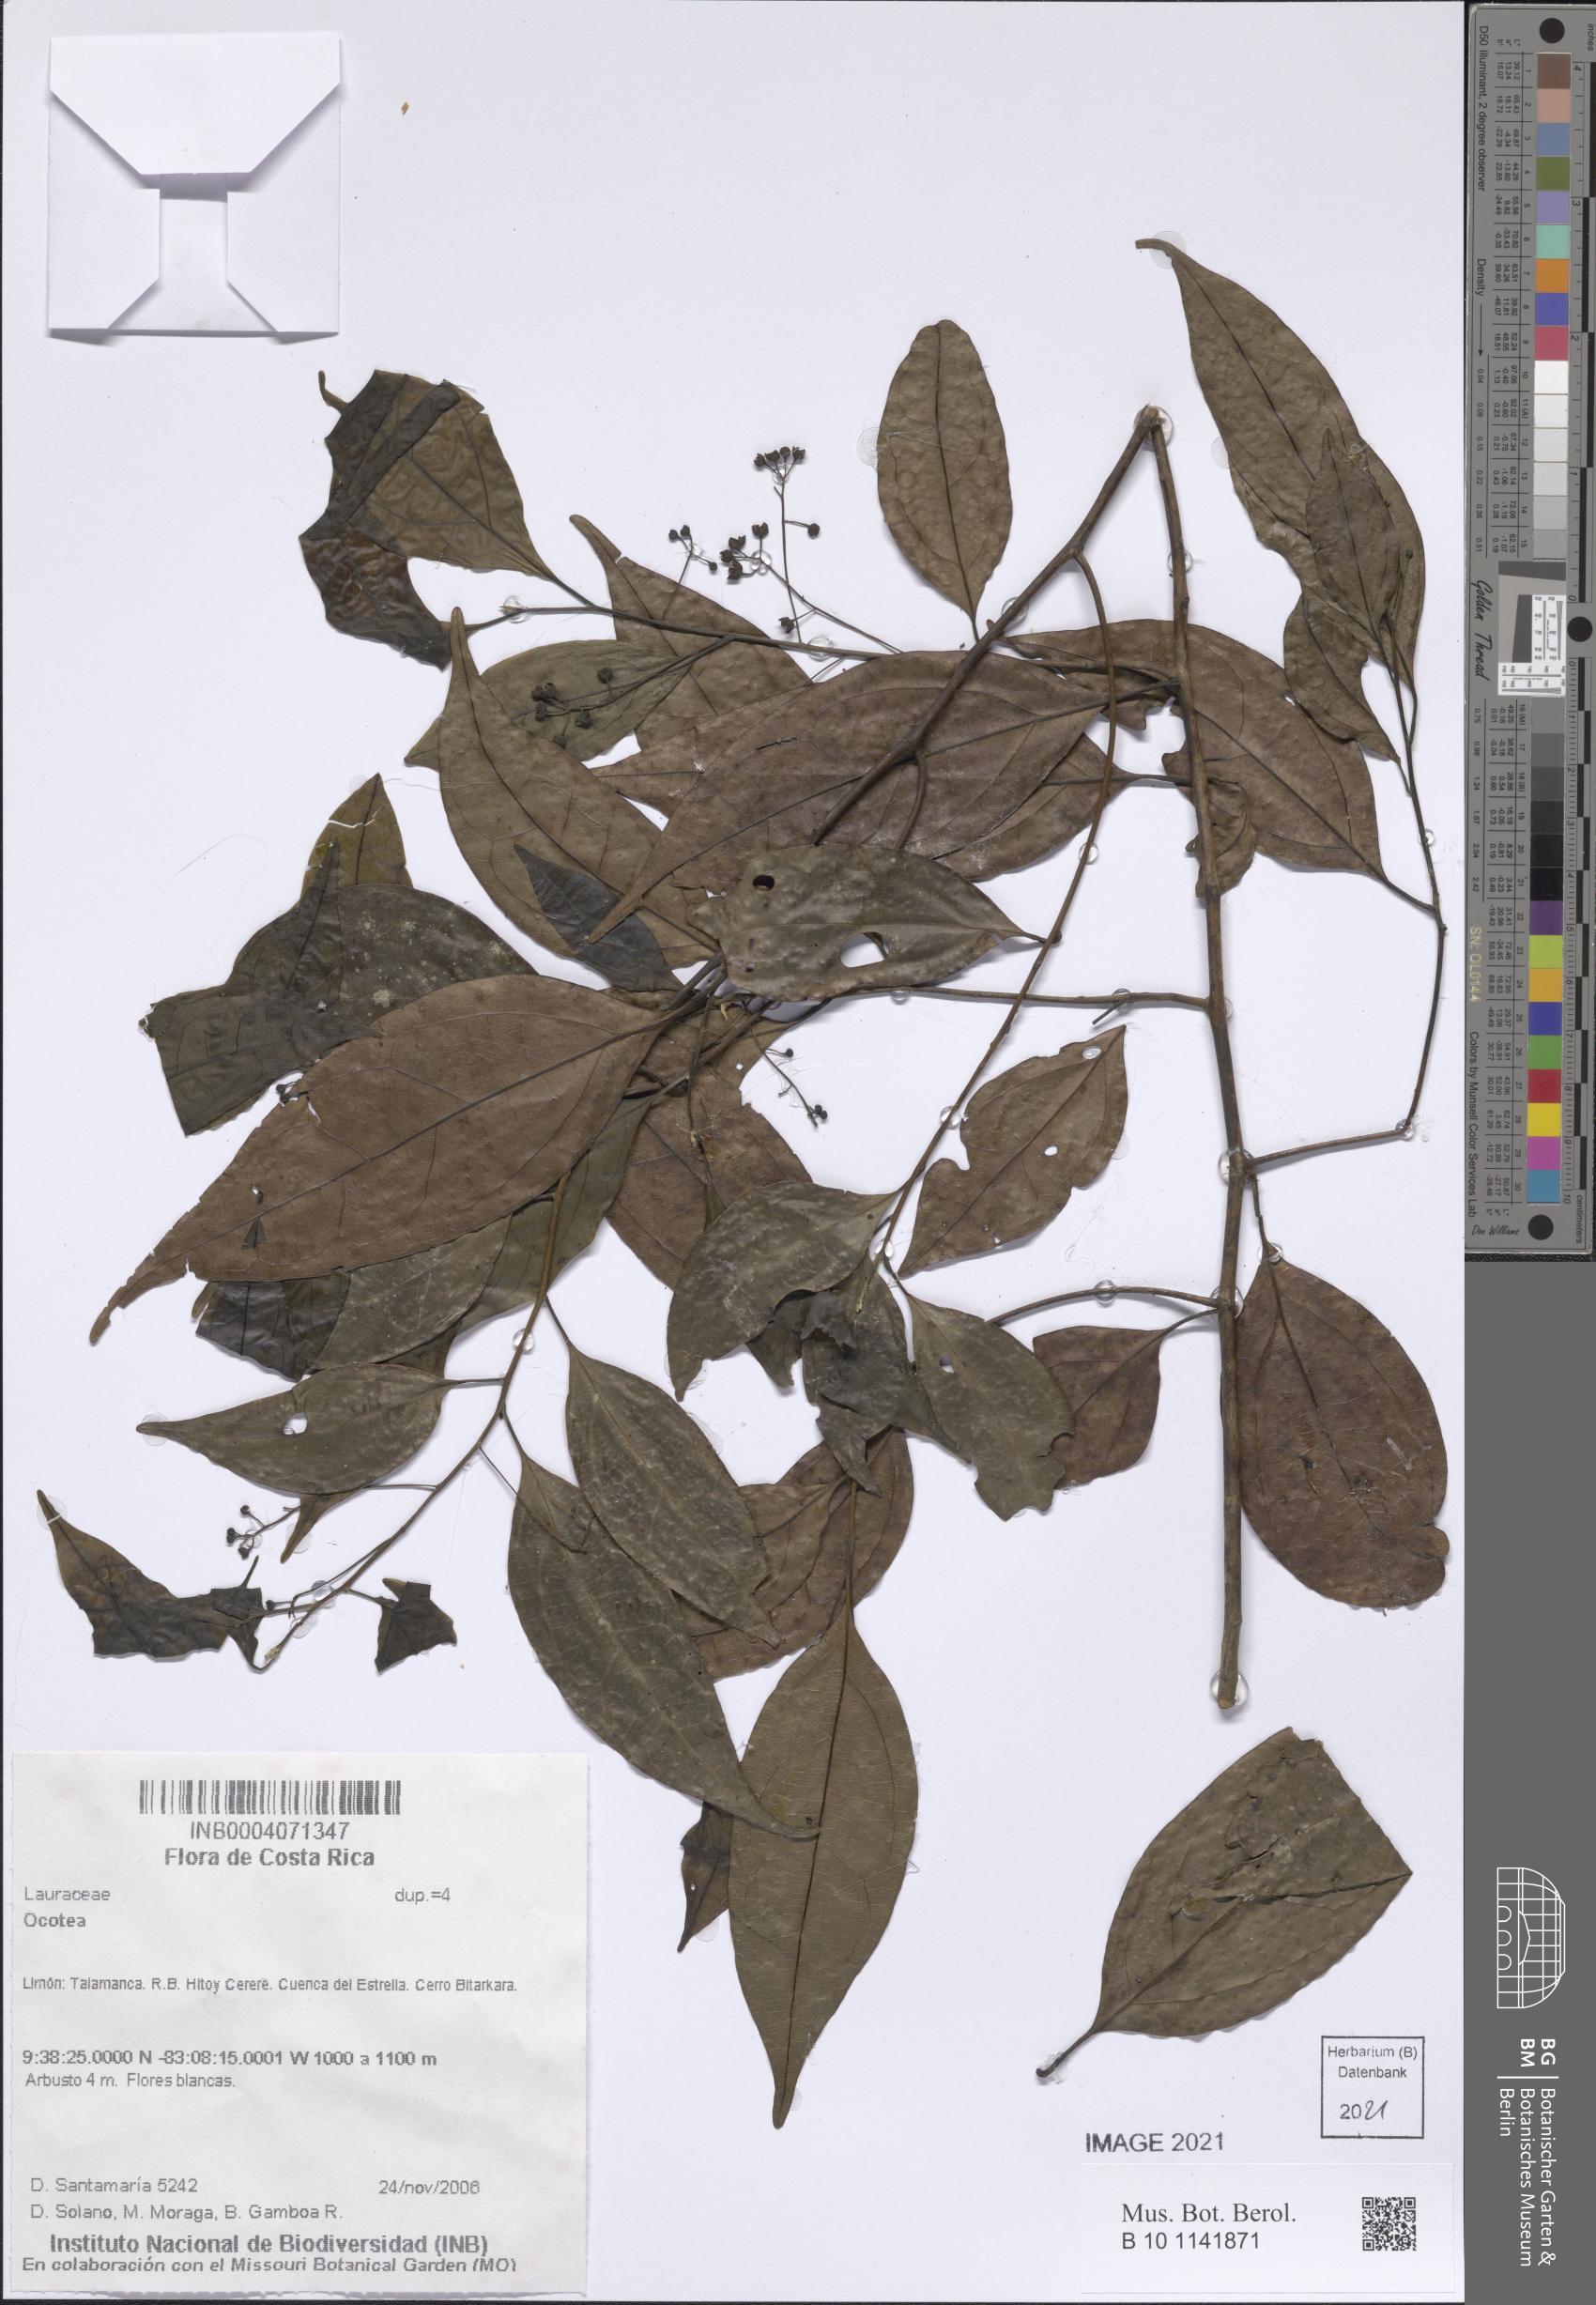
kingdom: Plantae
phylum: Tracheophyta
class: Magnoliopsida
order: Laurales
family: Lauraceae
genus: Ocotea
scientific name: Ocotea
